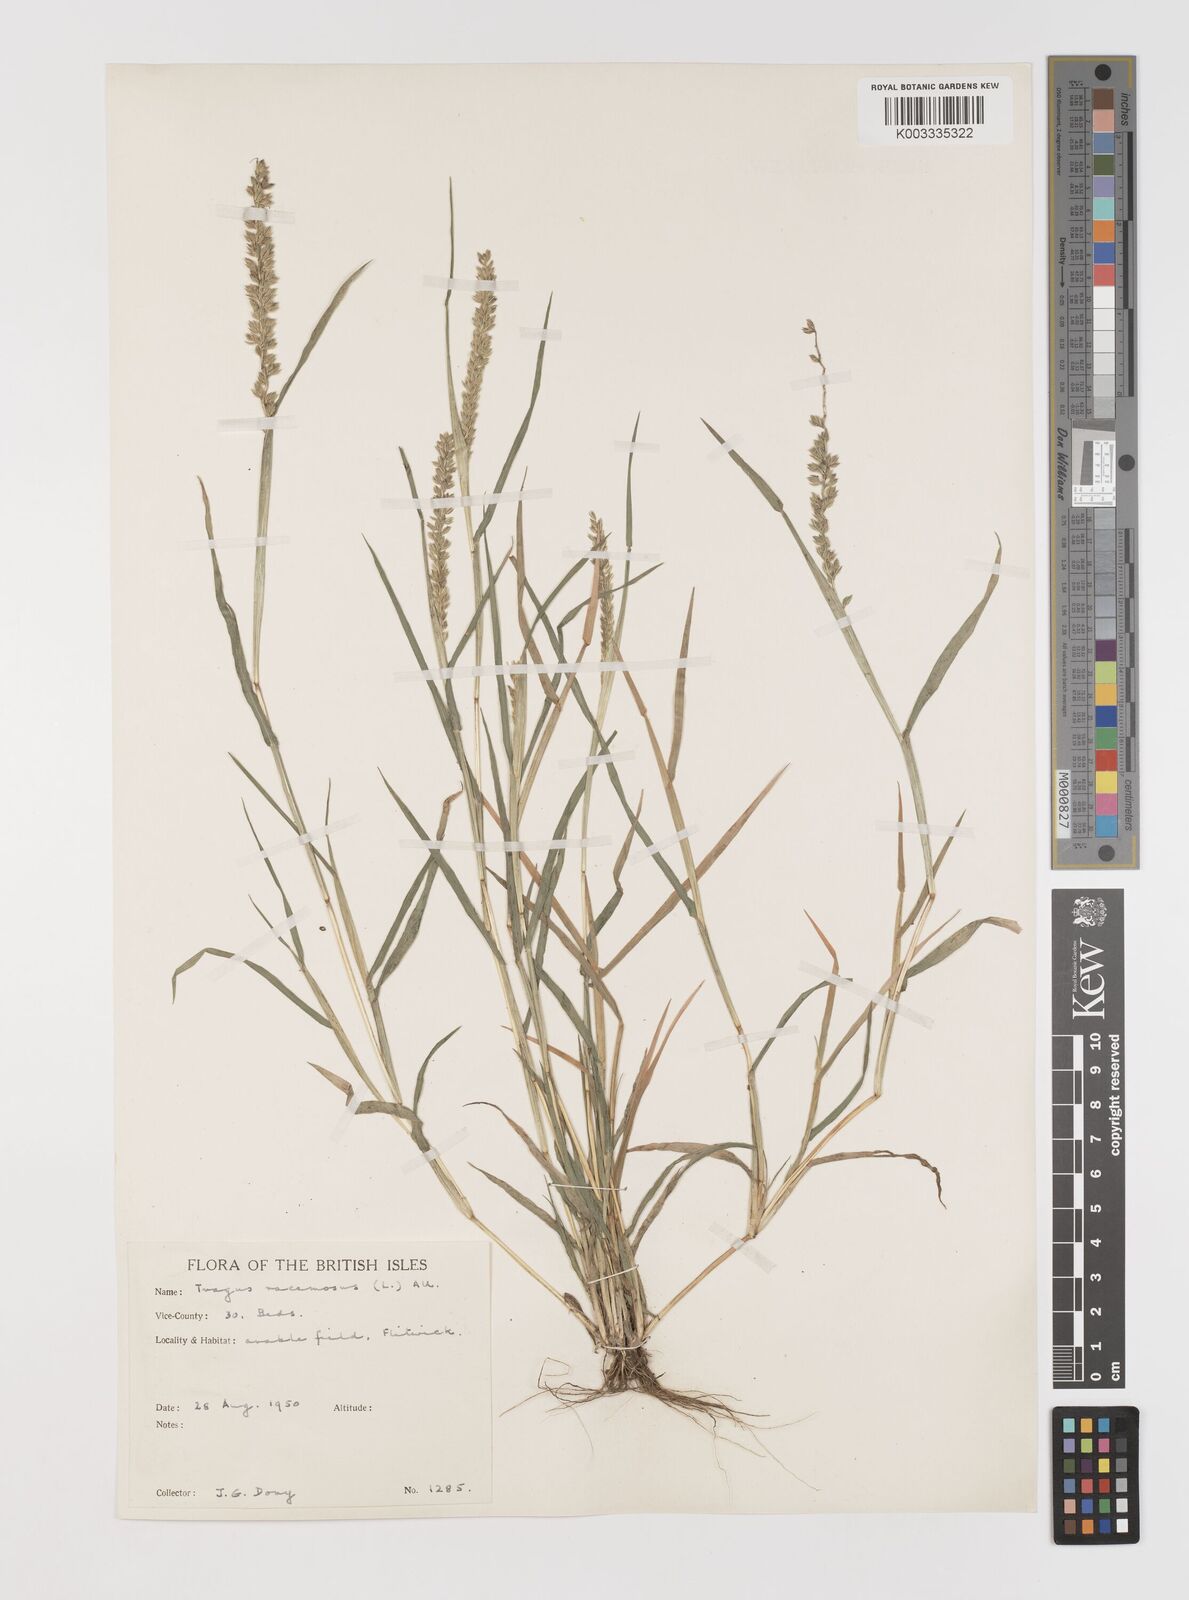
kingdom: Plantae
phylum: Tracheophyta
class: Liliopsida
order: Poales
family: Poaceae
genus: Tragus
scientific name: Tragus racemosus
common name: European bur-grass
